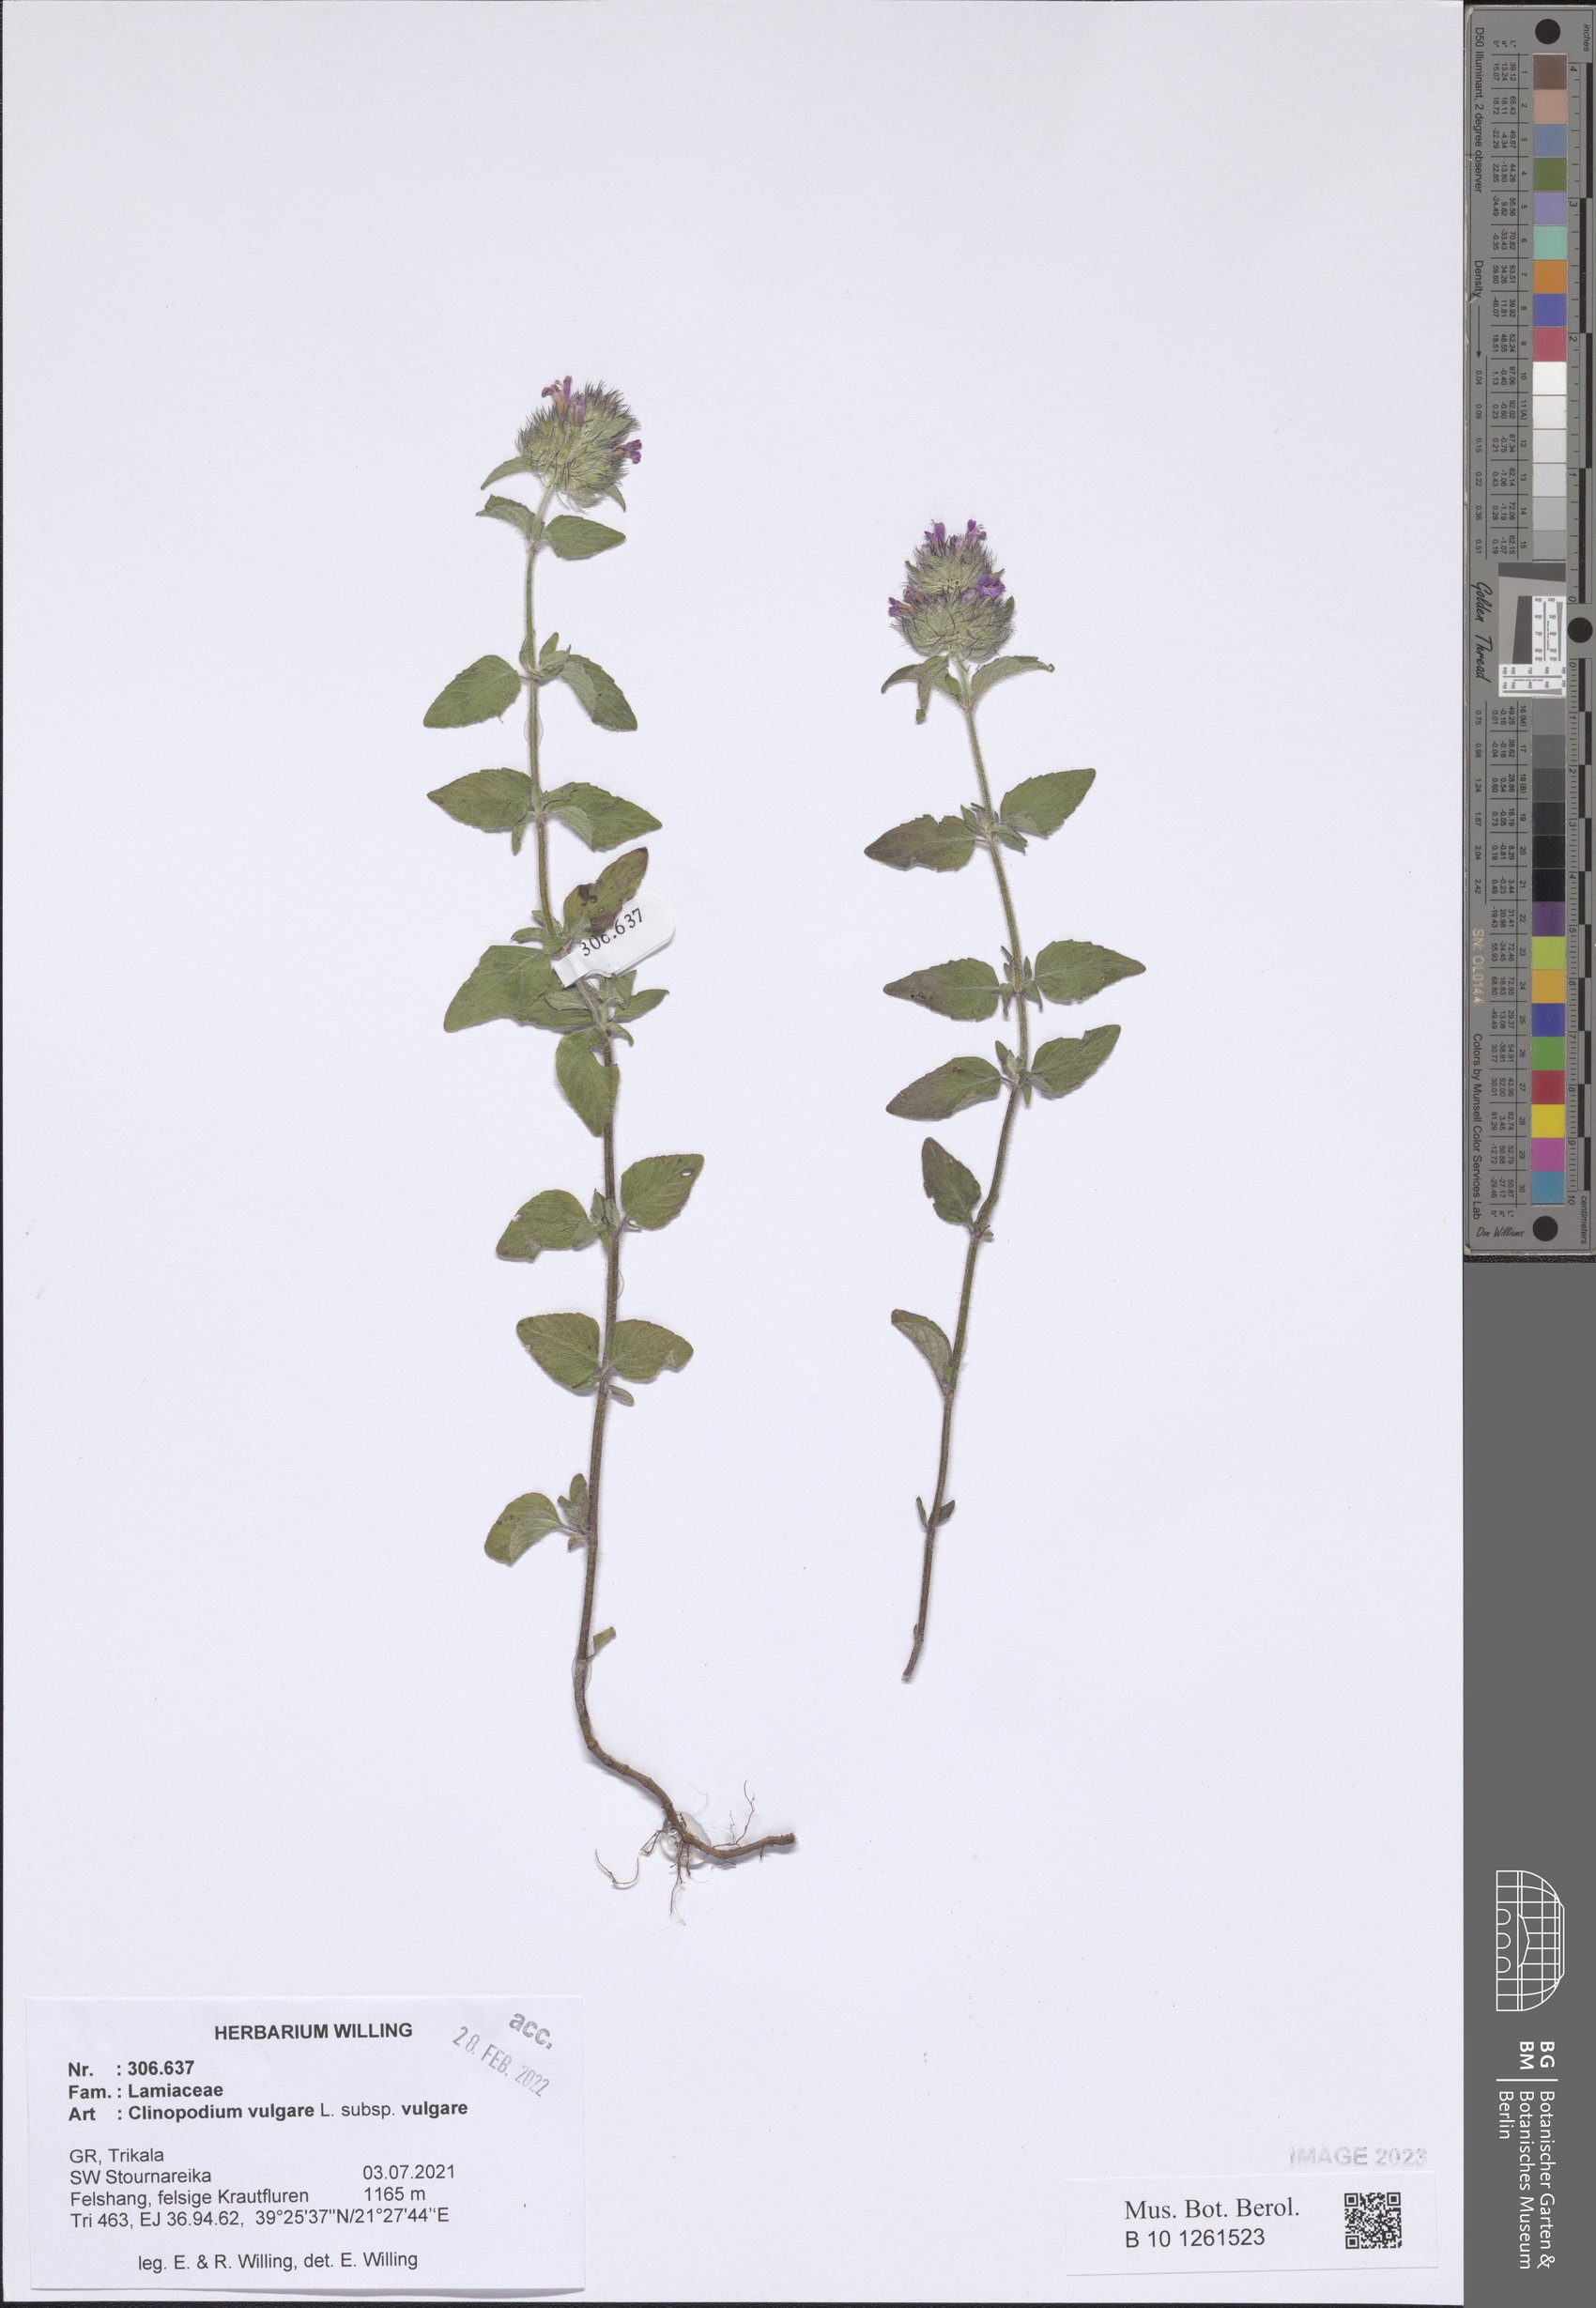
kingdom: Plantae
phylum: Tracheophyta
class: Magnoliopsida
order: Lamiales
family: Lamiaceae
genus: Clinopodium
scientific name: Clinopodium vulgare
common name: Wild basil
